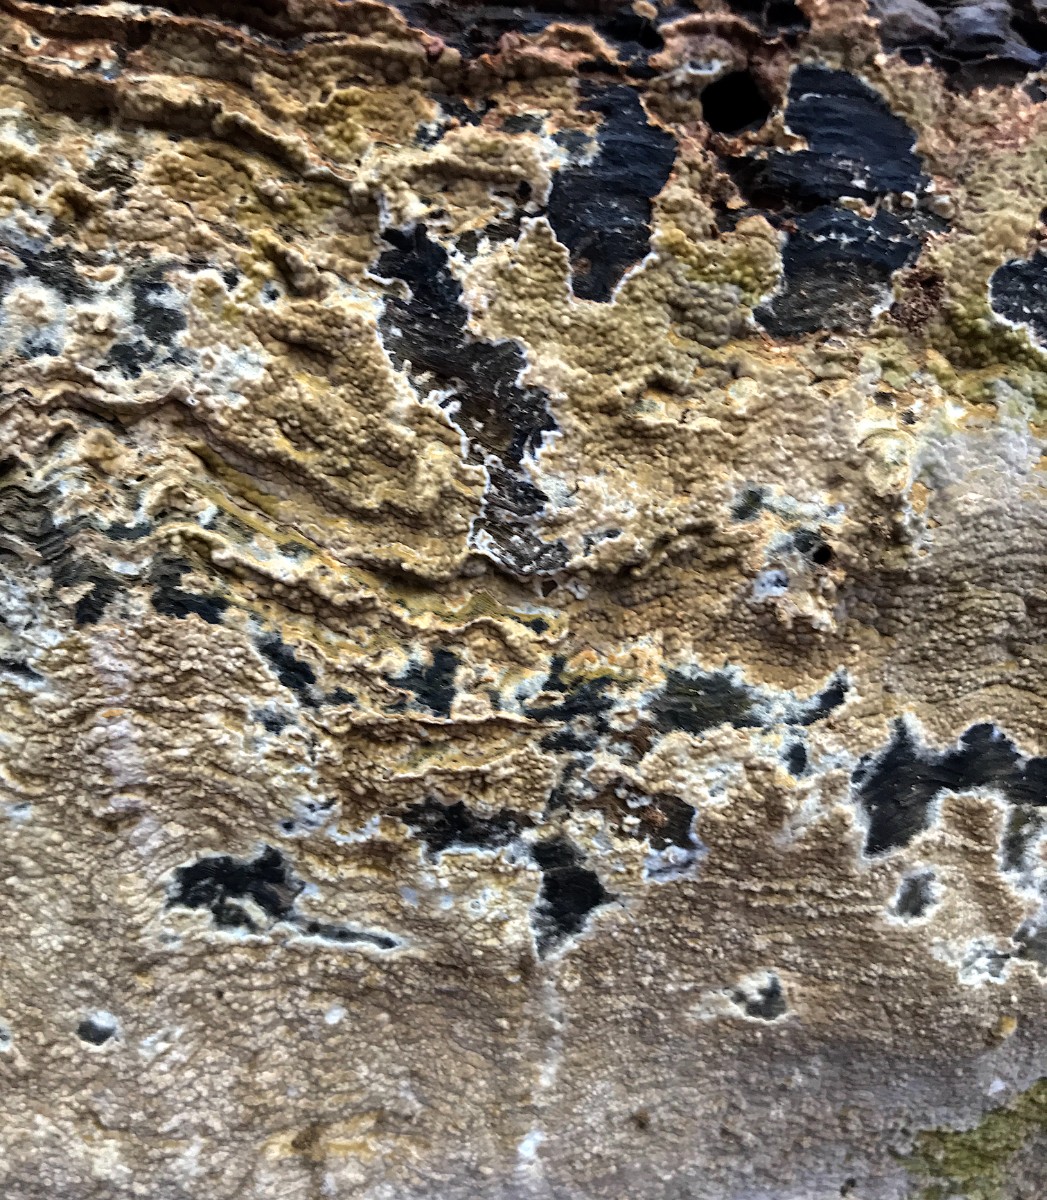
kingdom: Fungi
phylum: Basidiomycota
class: Agaricomycetes
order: Boletales
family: Coniophoraceae
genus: Coniophora
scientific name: Coniophora puteana
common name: gul tømmersvamp
